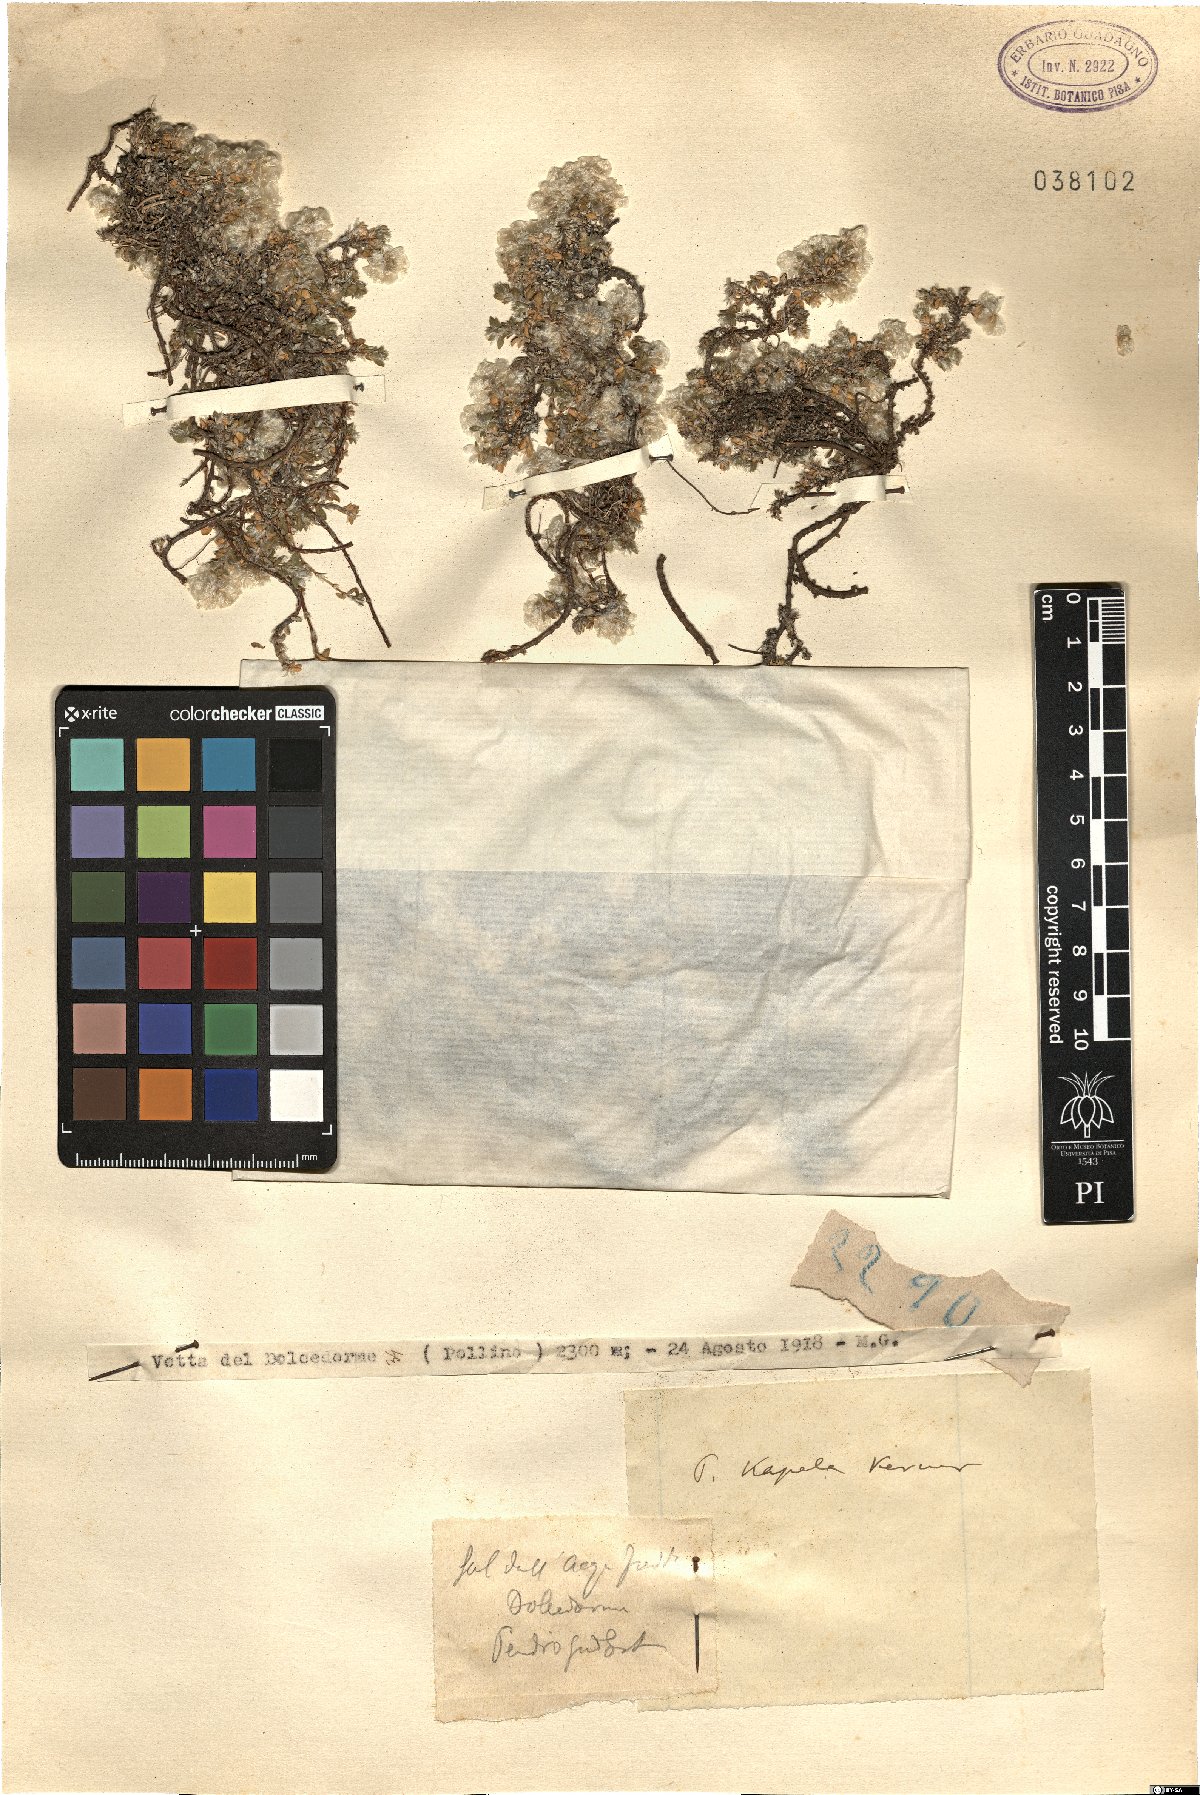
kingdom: Plantae
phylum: Tracheophyta
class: Magnoliopsida
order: Caryophyllales
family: Caryophyllaceae
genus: Paronychia
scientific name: Paronychia kapela
